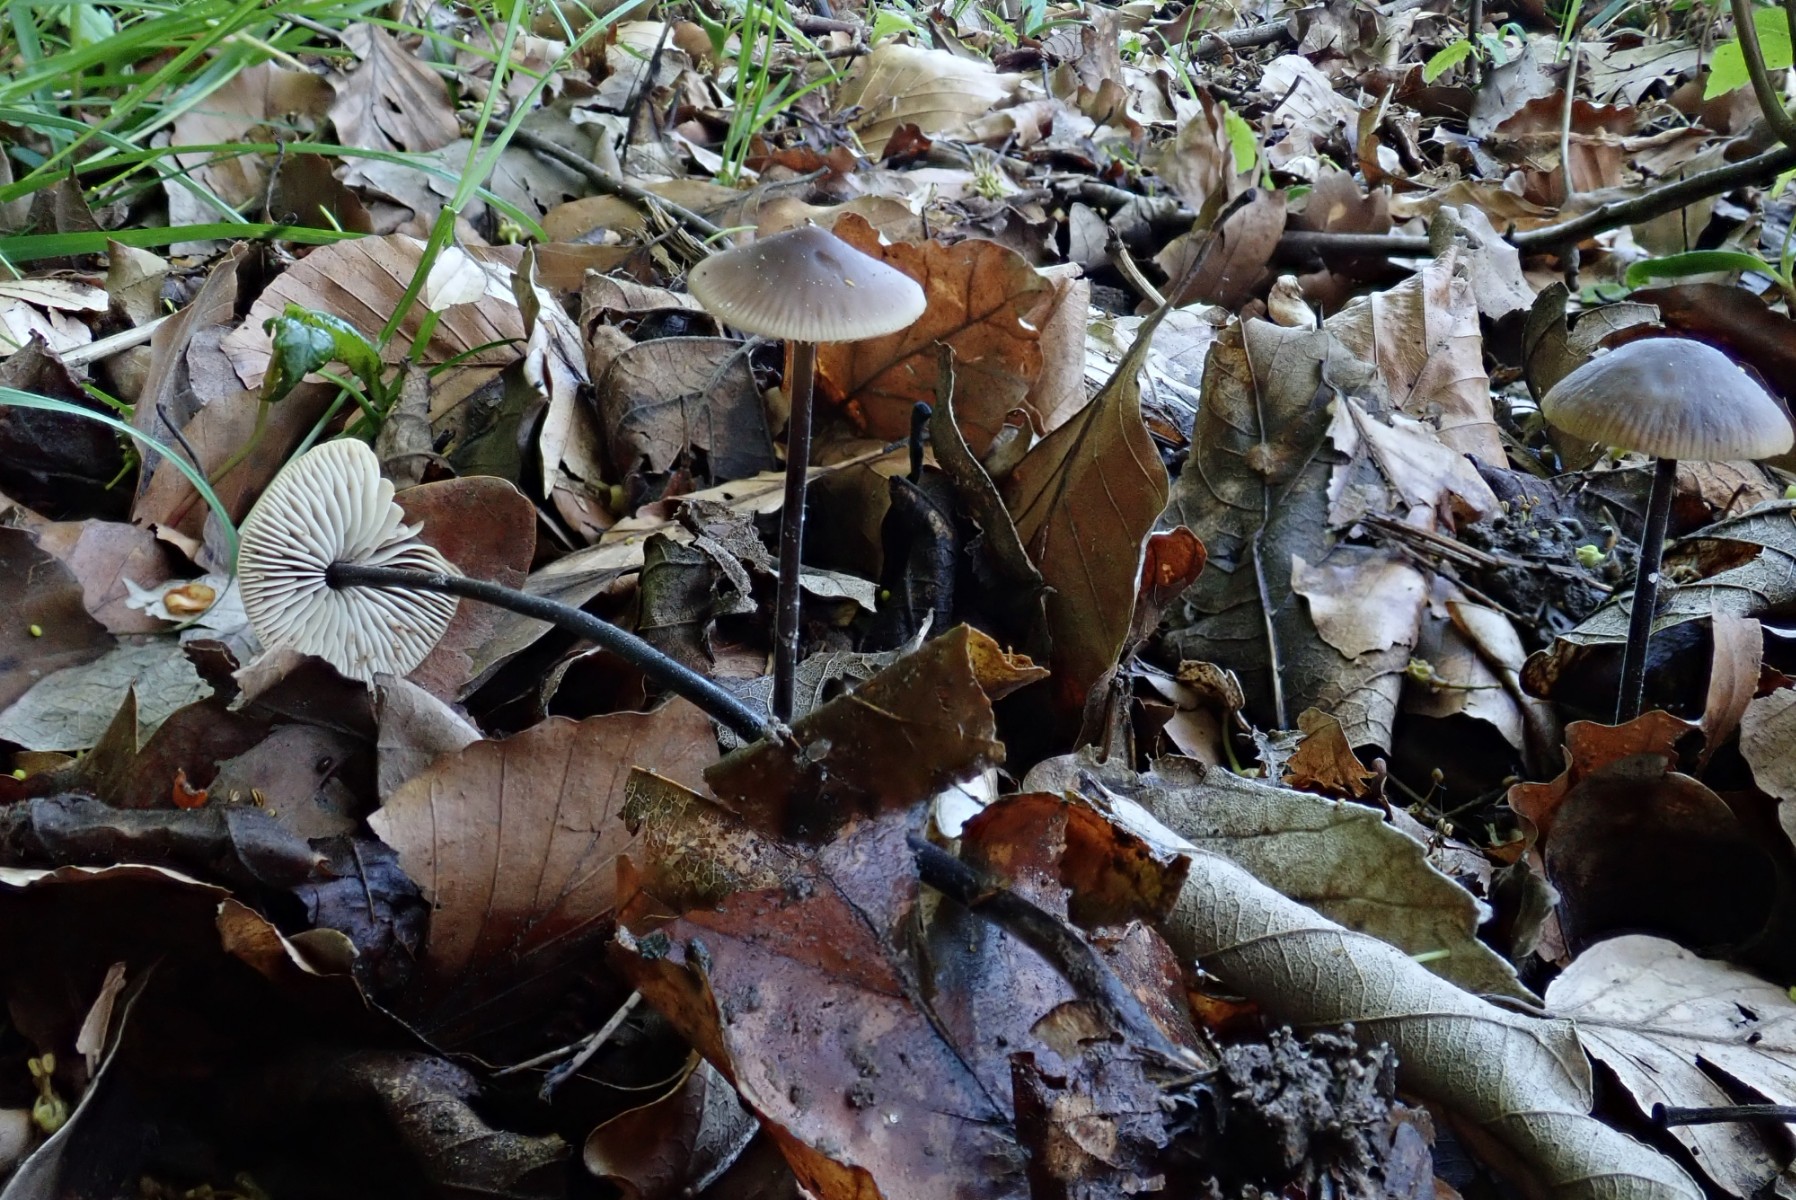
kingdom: Fungi
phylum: Basidiomycota
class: Agaricomycetes
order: Agaricales
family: Omphalotaceae
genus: Mycetinis
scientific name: Mycetinis alliaceus
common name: stor løghat
